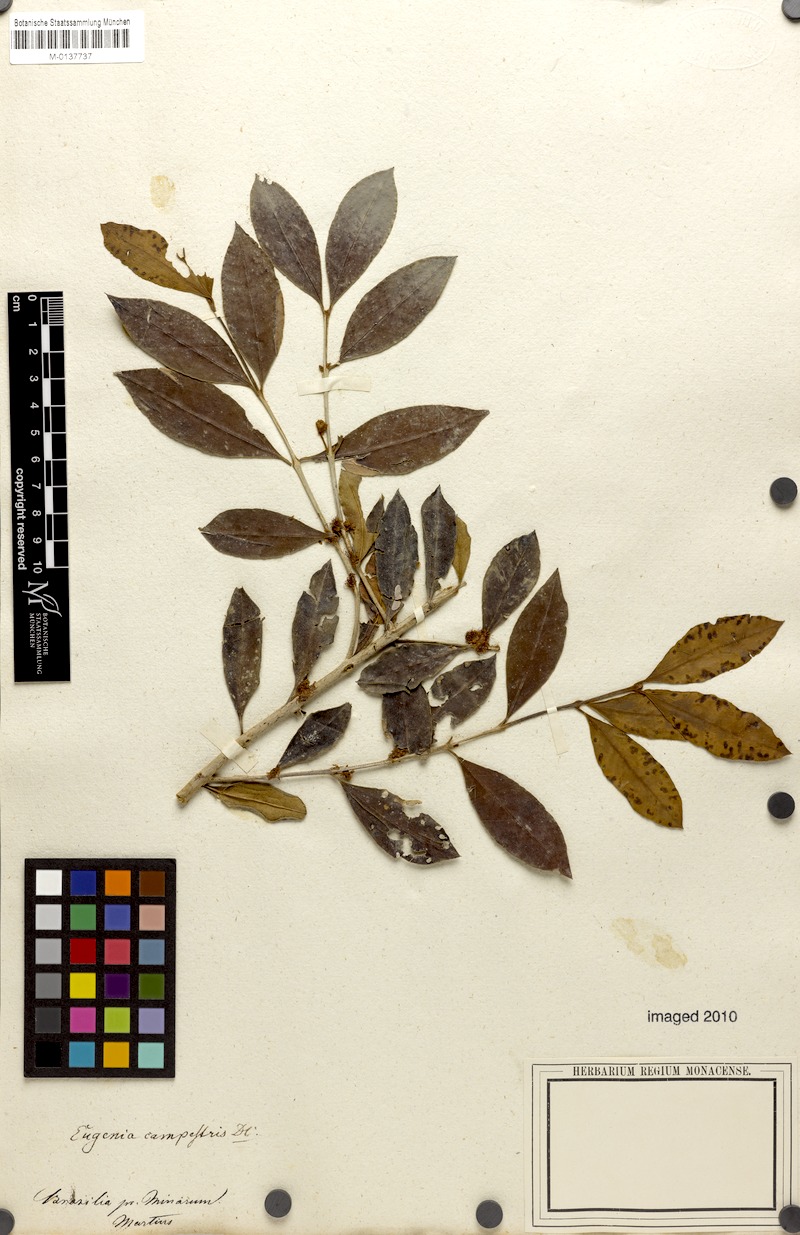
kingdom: Plantae
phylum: Tracheophyta
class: Magnoliopsida
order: Myrtales
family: Myrtaceae
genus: Myrceugenia
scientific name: Myrceugenia campestris
